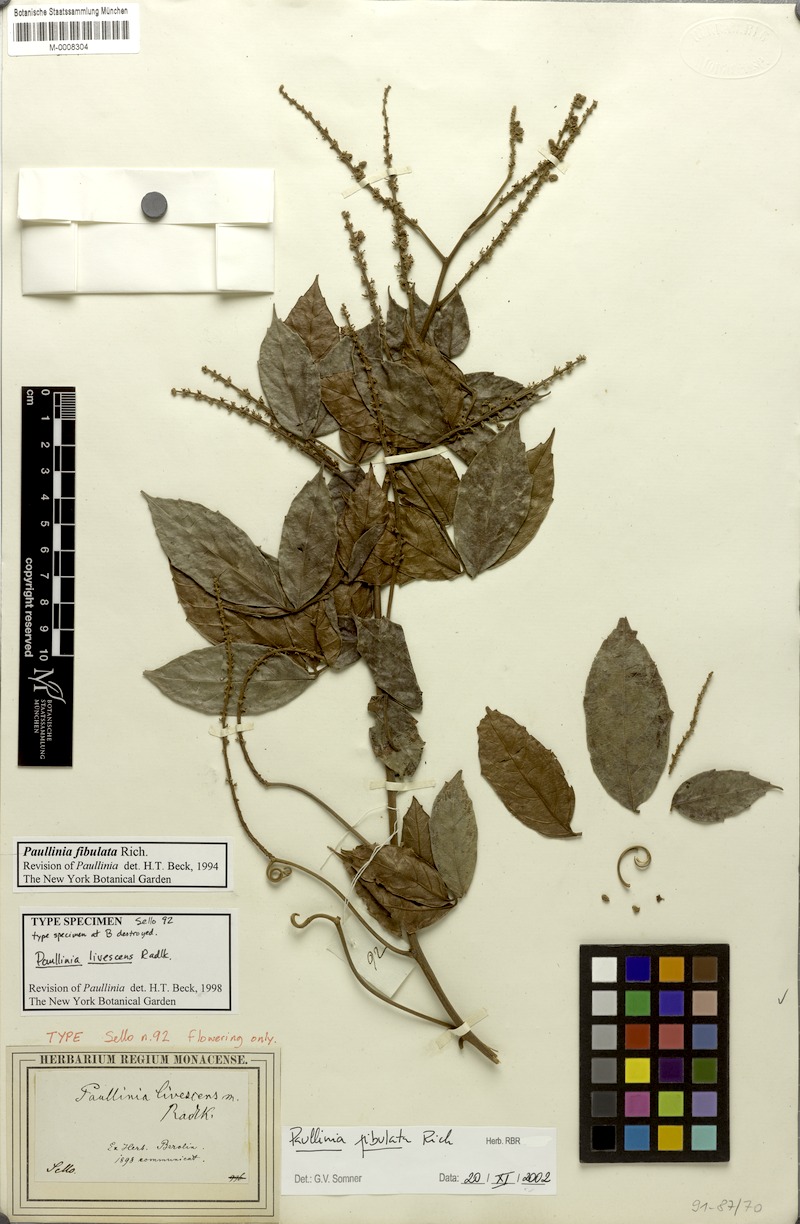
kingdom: Plantae
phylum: Tracheophyta
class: Magnoliopsida
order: Sapindales
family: Sapindaceae
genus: Paullinia
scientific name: Paullinia fibulata
